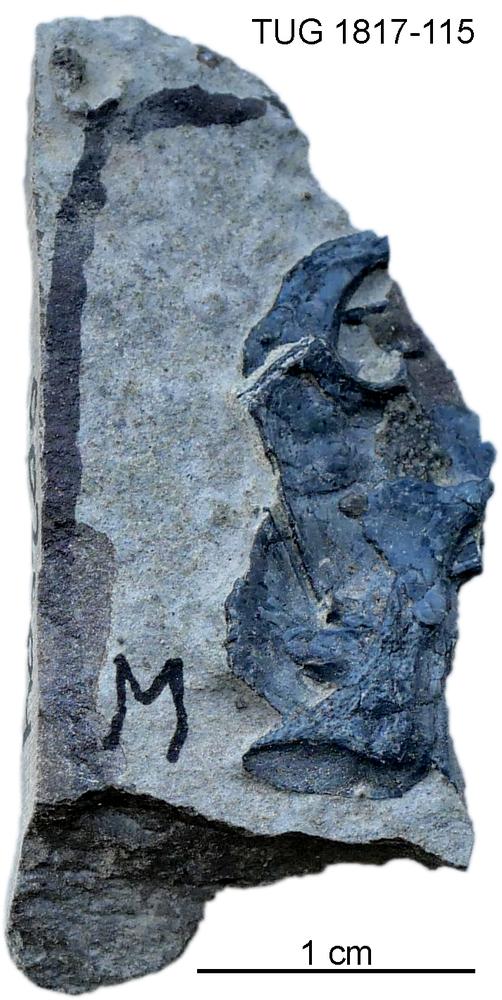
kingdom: Animalia
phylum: Chordata
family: Coccosteidae
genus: Millerosteus
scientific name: Millerosteus minor
